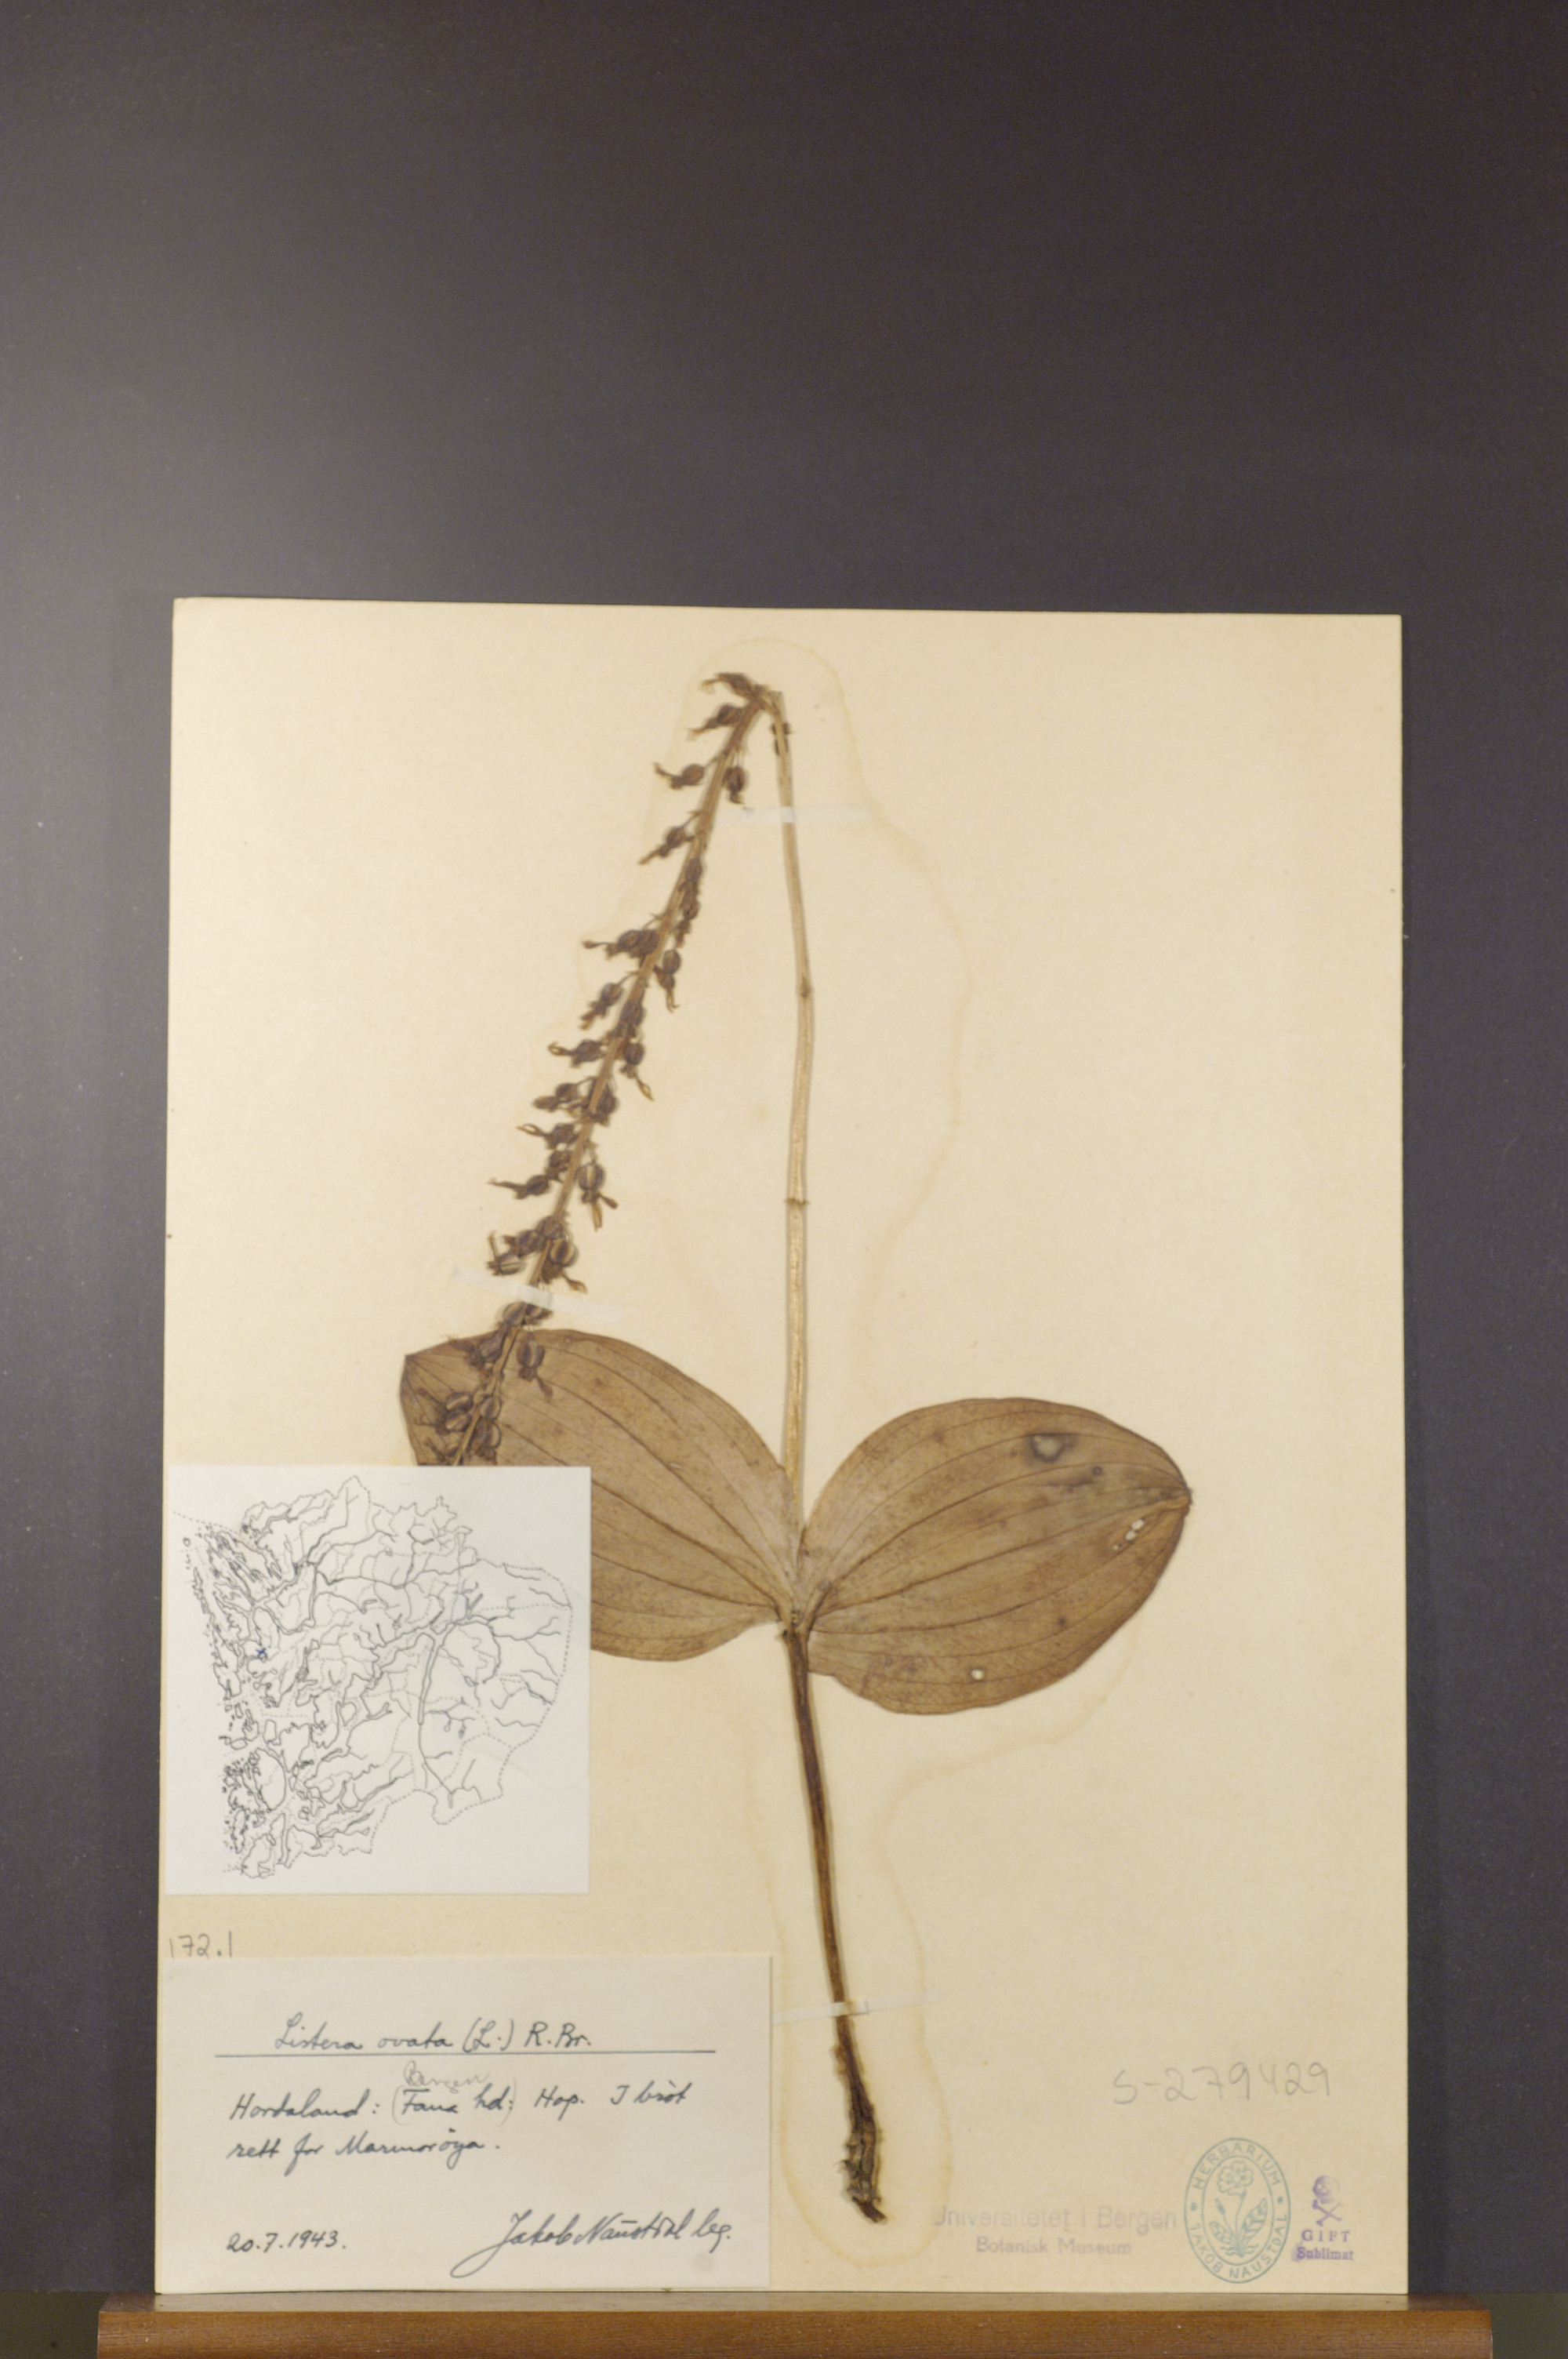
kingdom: Plantae
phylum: Tracheophyta
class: Liliopsida
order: Asparagales
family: Orchidaceae
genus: Neottia
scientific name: Neottia ovata
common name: Common twayblade
